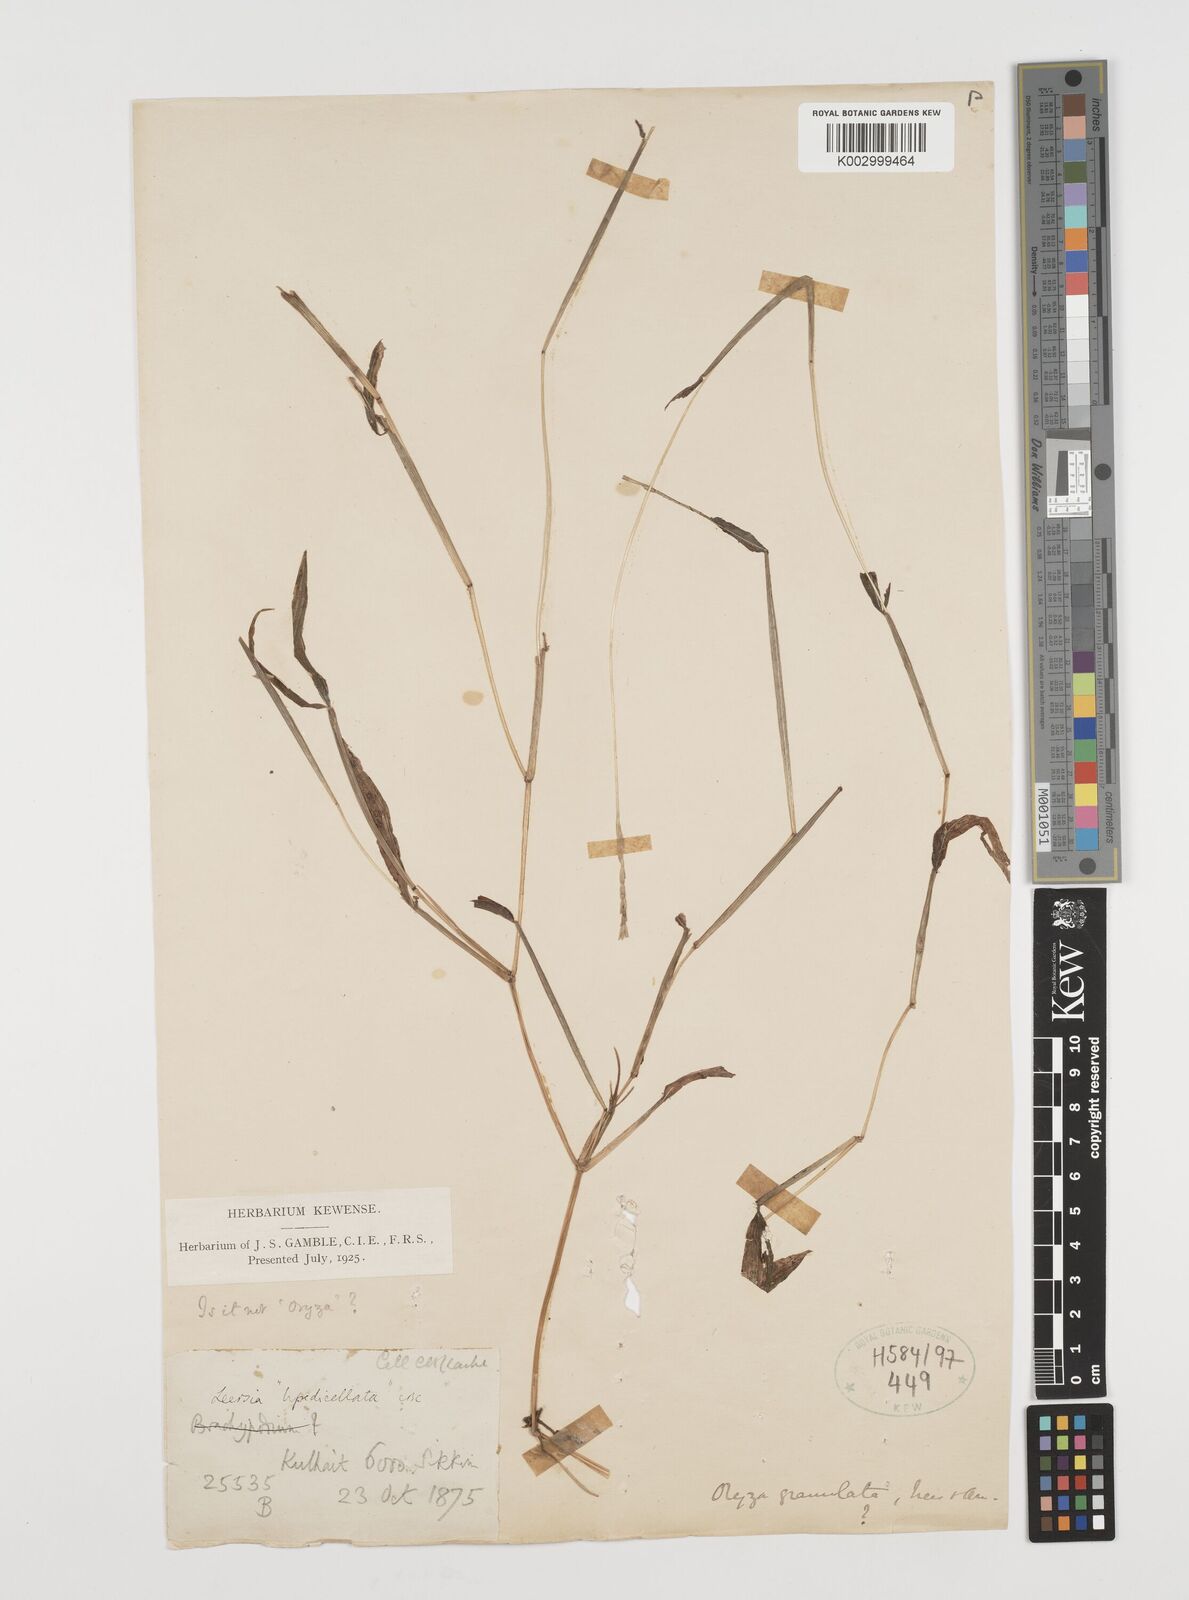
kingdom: Plantae
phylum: Tracheophyta
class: Liliopsida
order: Poales
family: Poaceae
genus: Leersia
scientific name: Leersia hexandra
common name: Southern cut grass
